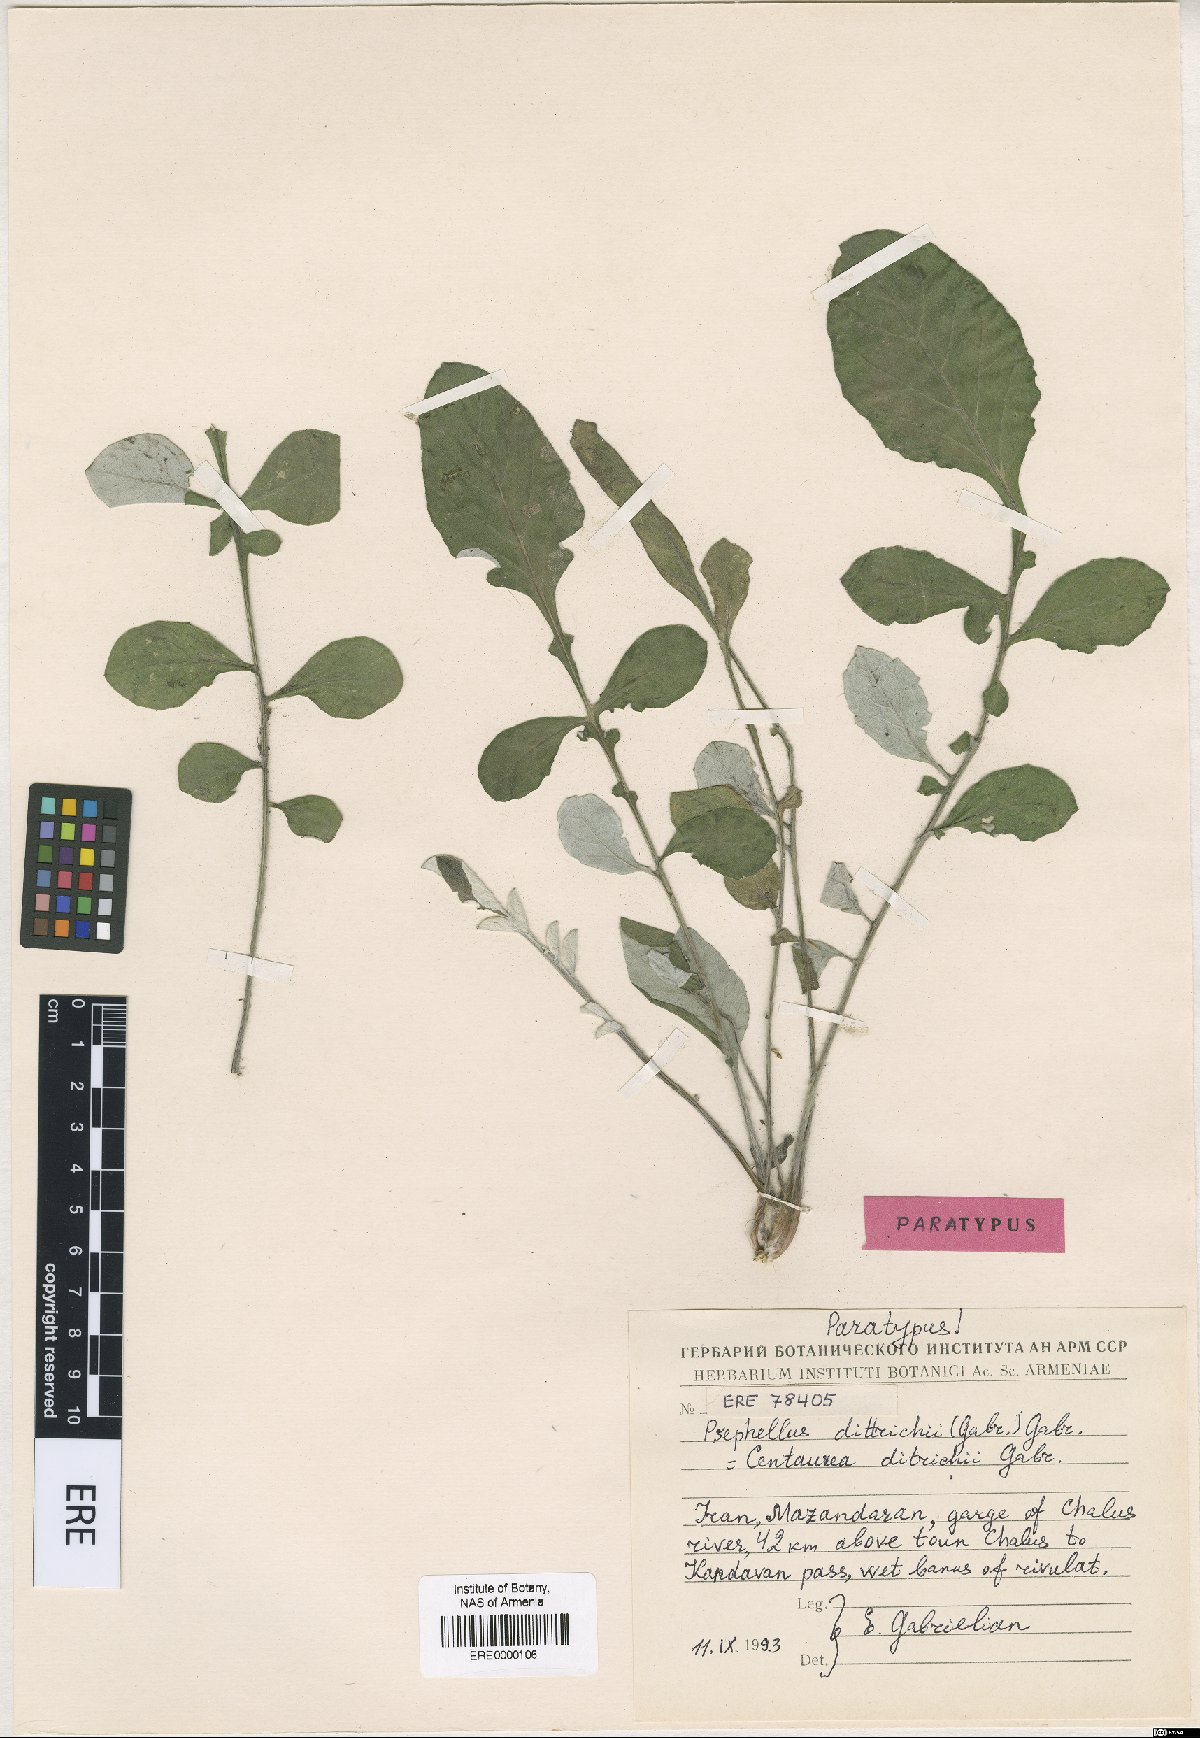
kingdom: Plantae
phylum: Tracheophyta
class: Magnoliopsida
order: Asterales
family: Asteraceae
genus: Psephellus
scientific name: Psephellus dittrichii
